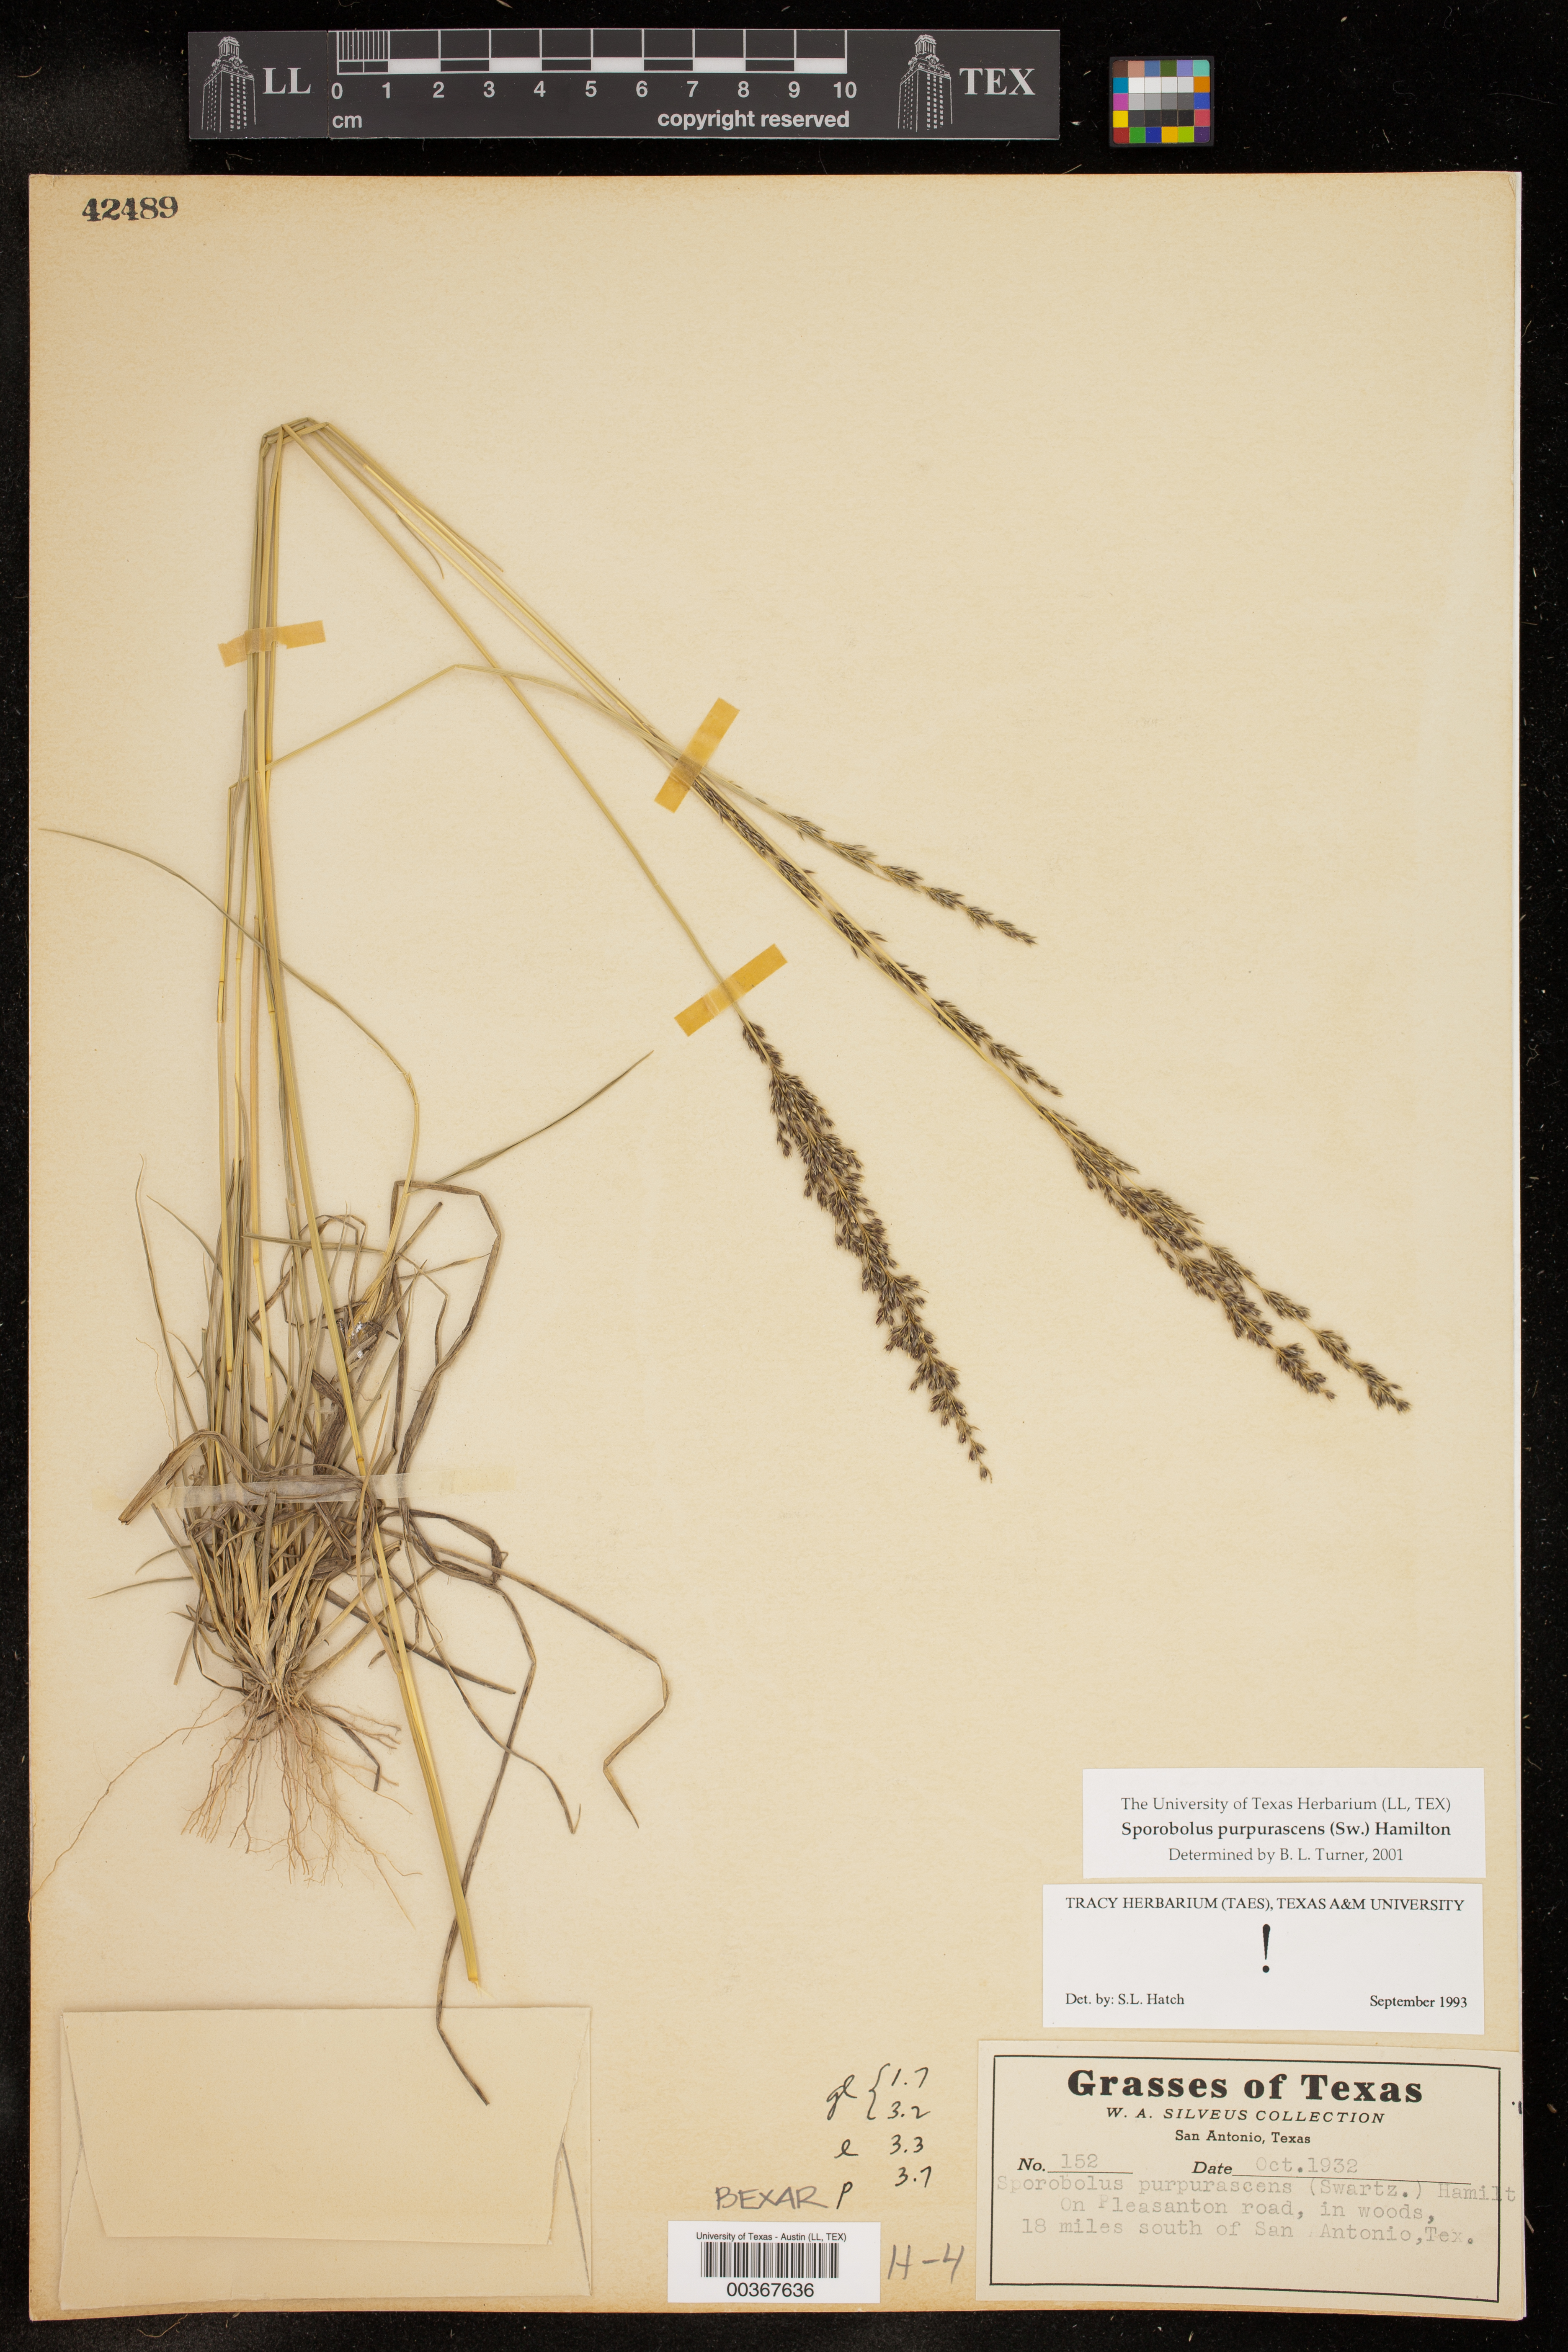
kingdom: Plantae
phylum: Tracheophyta
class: Liliopsida
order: Poales
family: Poaceae
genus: Sporobolus
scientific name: Sporobolus purpurascens
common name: Purple dropseed
